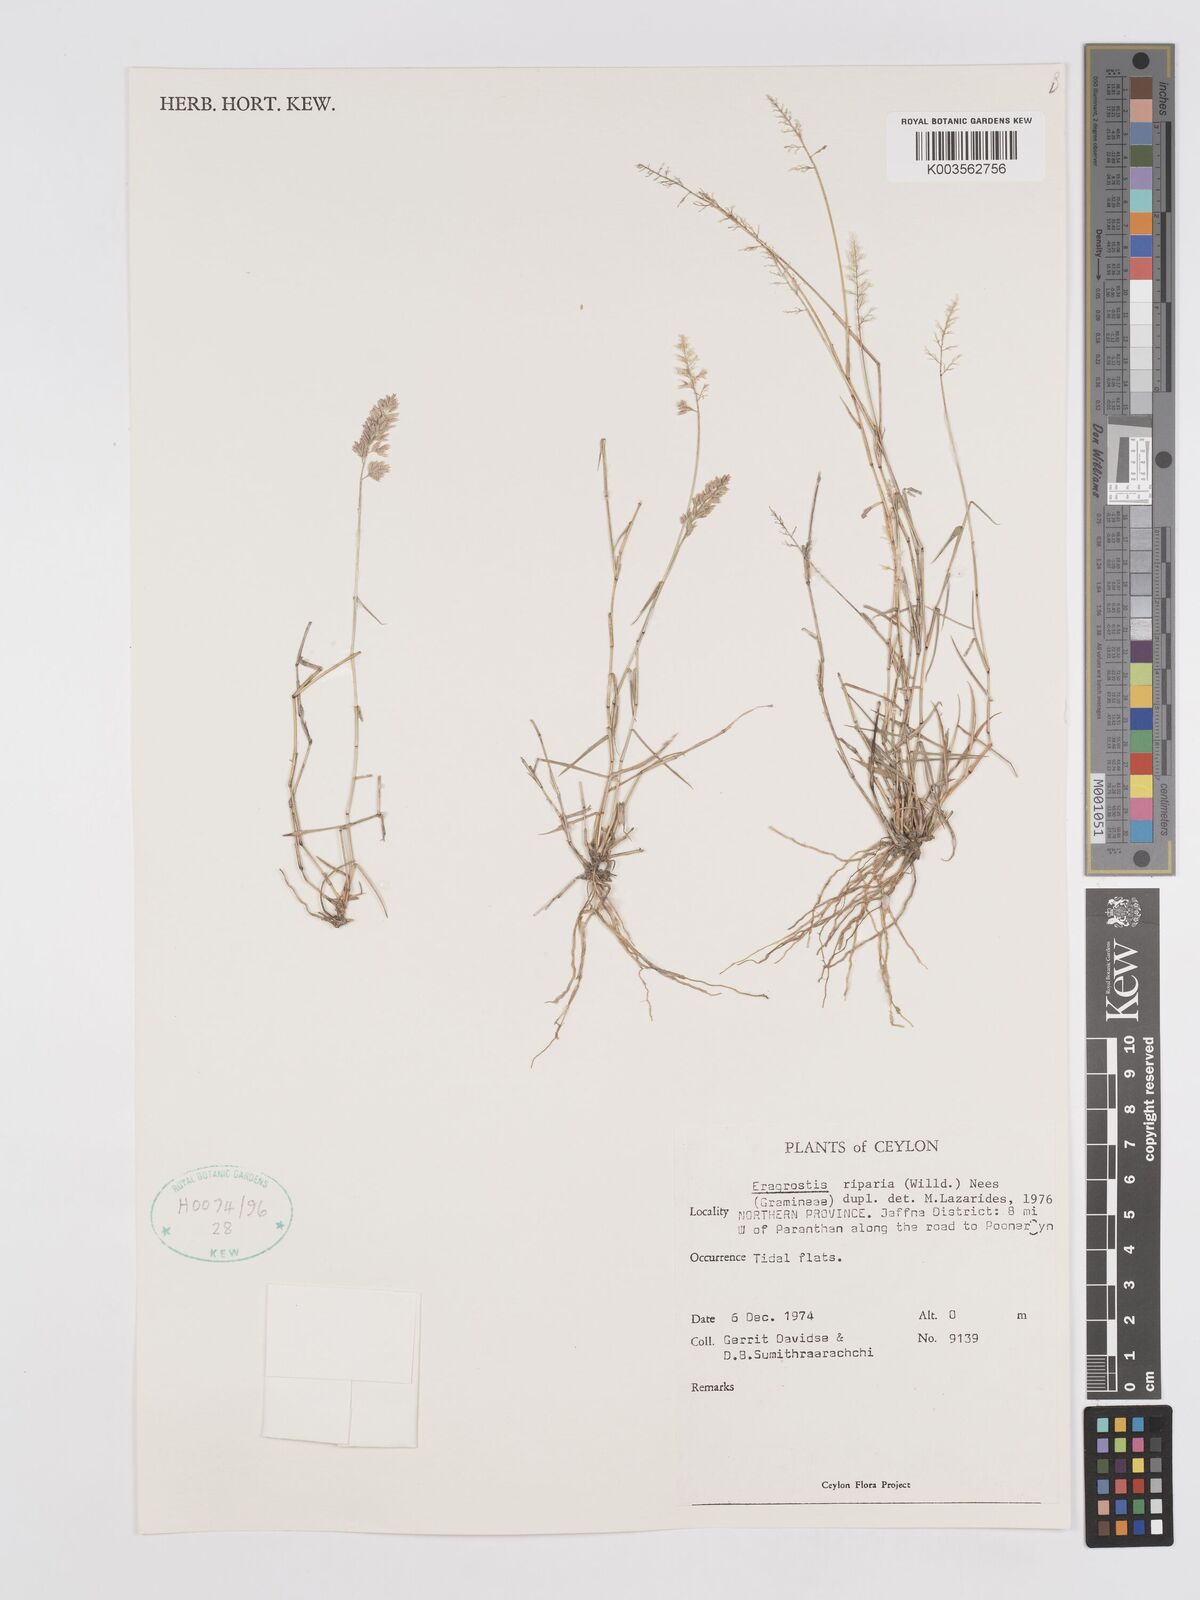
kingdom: Plantae
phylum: Tracheophyta
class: Liliopsida
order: Poales
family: Poaceae
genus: Eragrostis
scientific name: Eragrostis riparia
